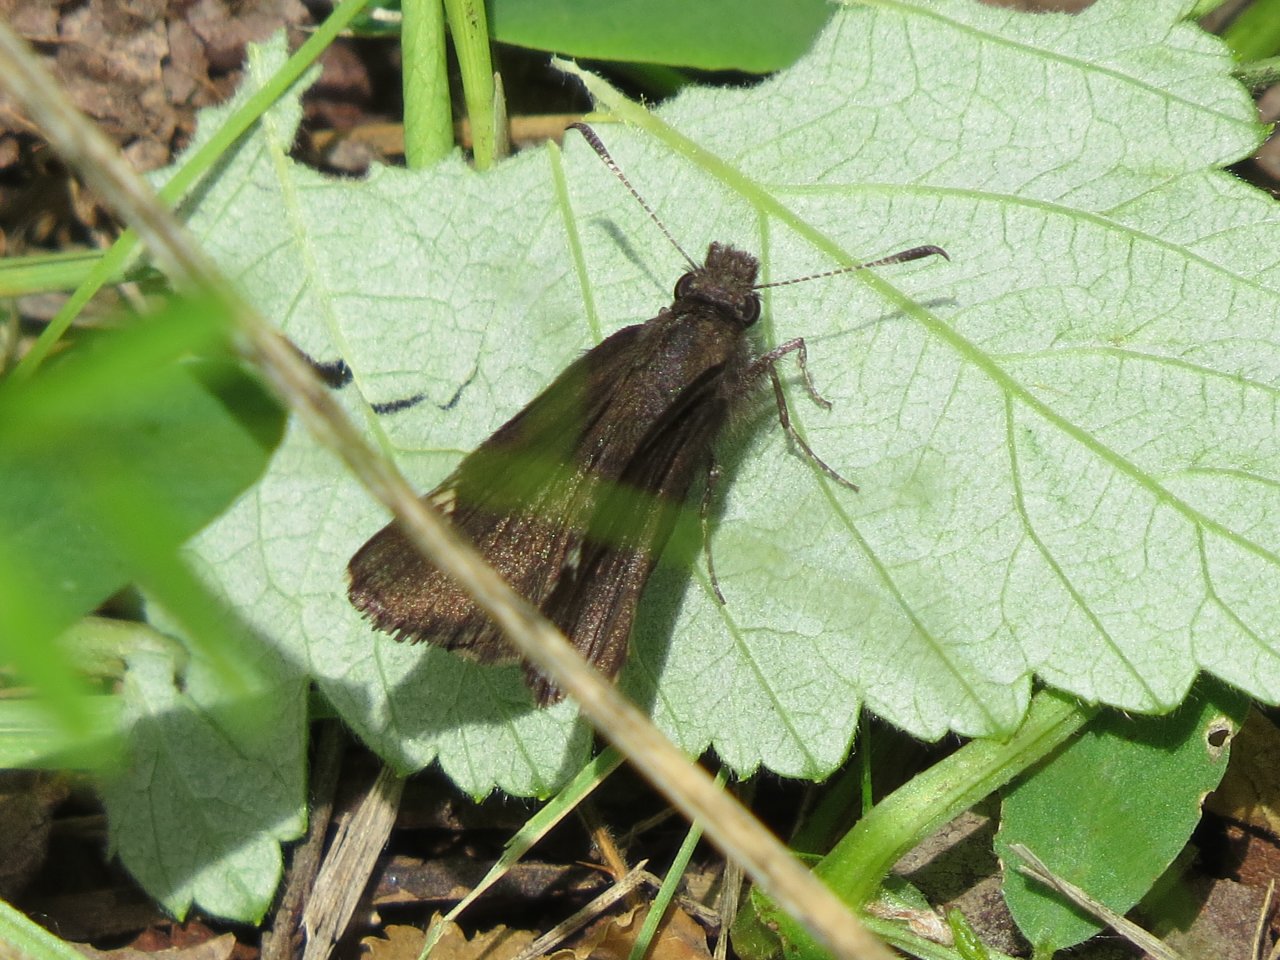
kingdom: Animalia
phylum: Arthropoda
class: Insecta
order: Lepidoptera
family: Hesperiidae
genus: Mastor
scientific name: Mastor vialis
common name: Common Roadside-Skipper
